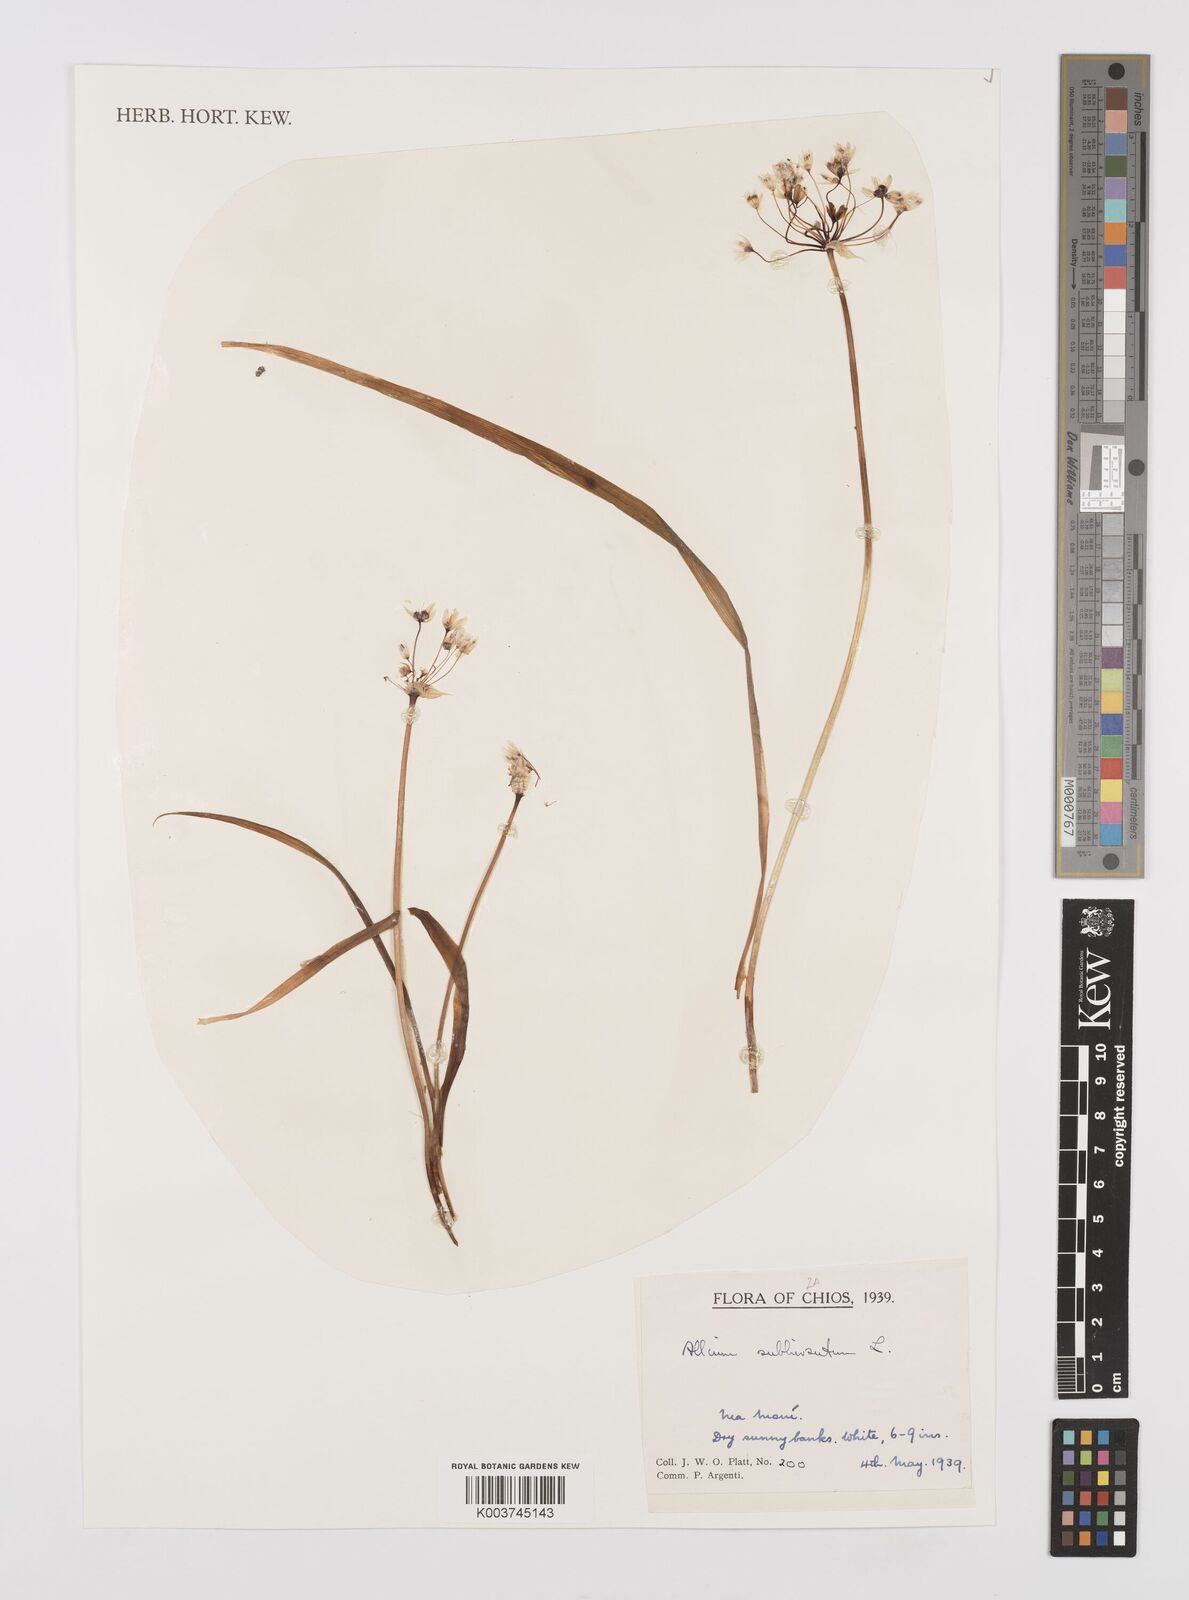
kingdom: Plantae
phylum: Tracheophyta
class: Liliopsida
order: Asparagales
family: Amaryllidaceae
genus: Allium
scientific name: Allium subhirsutum
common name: Hairy garlic
